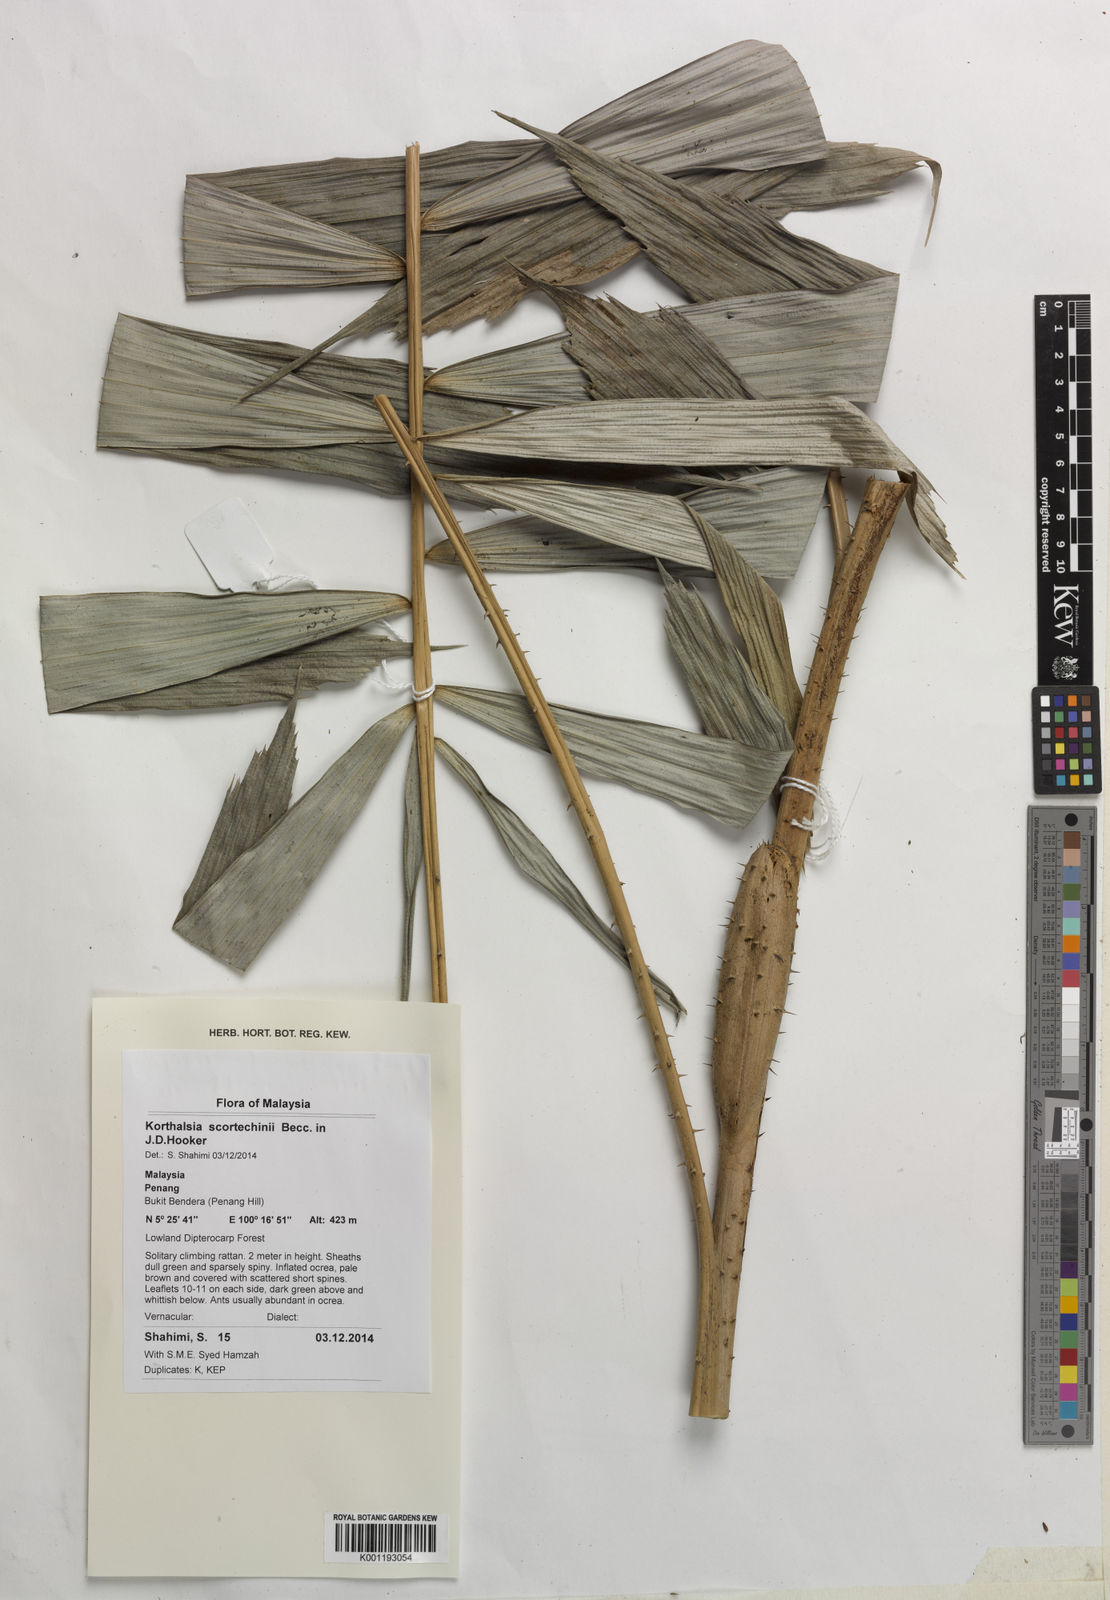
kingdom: Plantae
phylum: Tracheophyta
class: Liliopsida
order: Arecales
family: Arecaceae
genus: Korthalsia
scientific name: Korthalsia scortechinii
